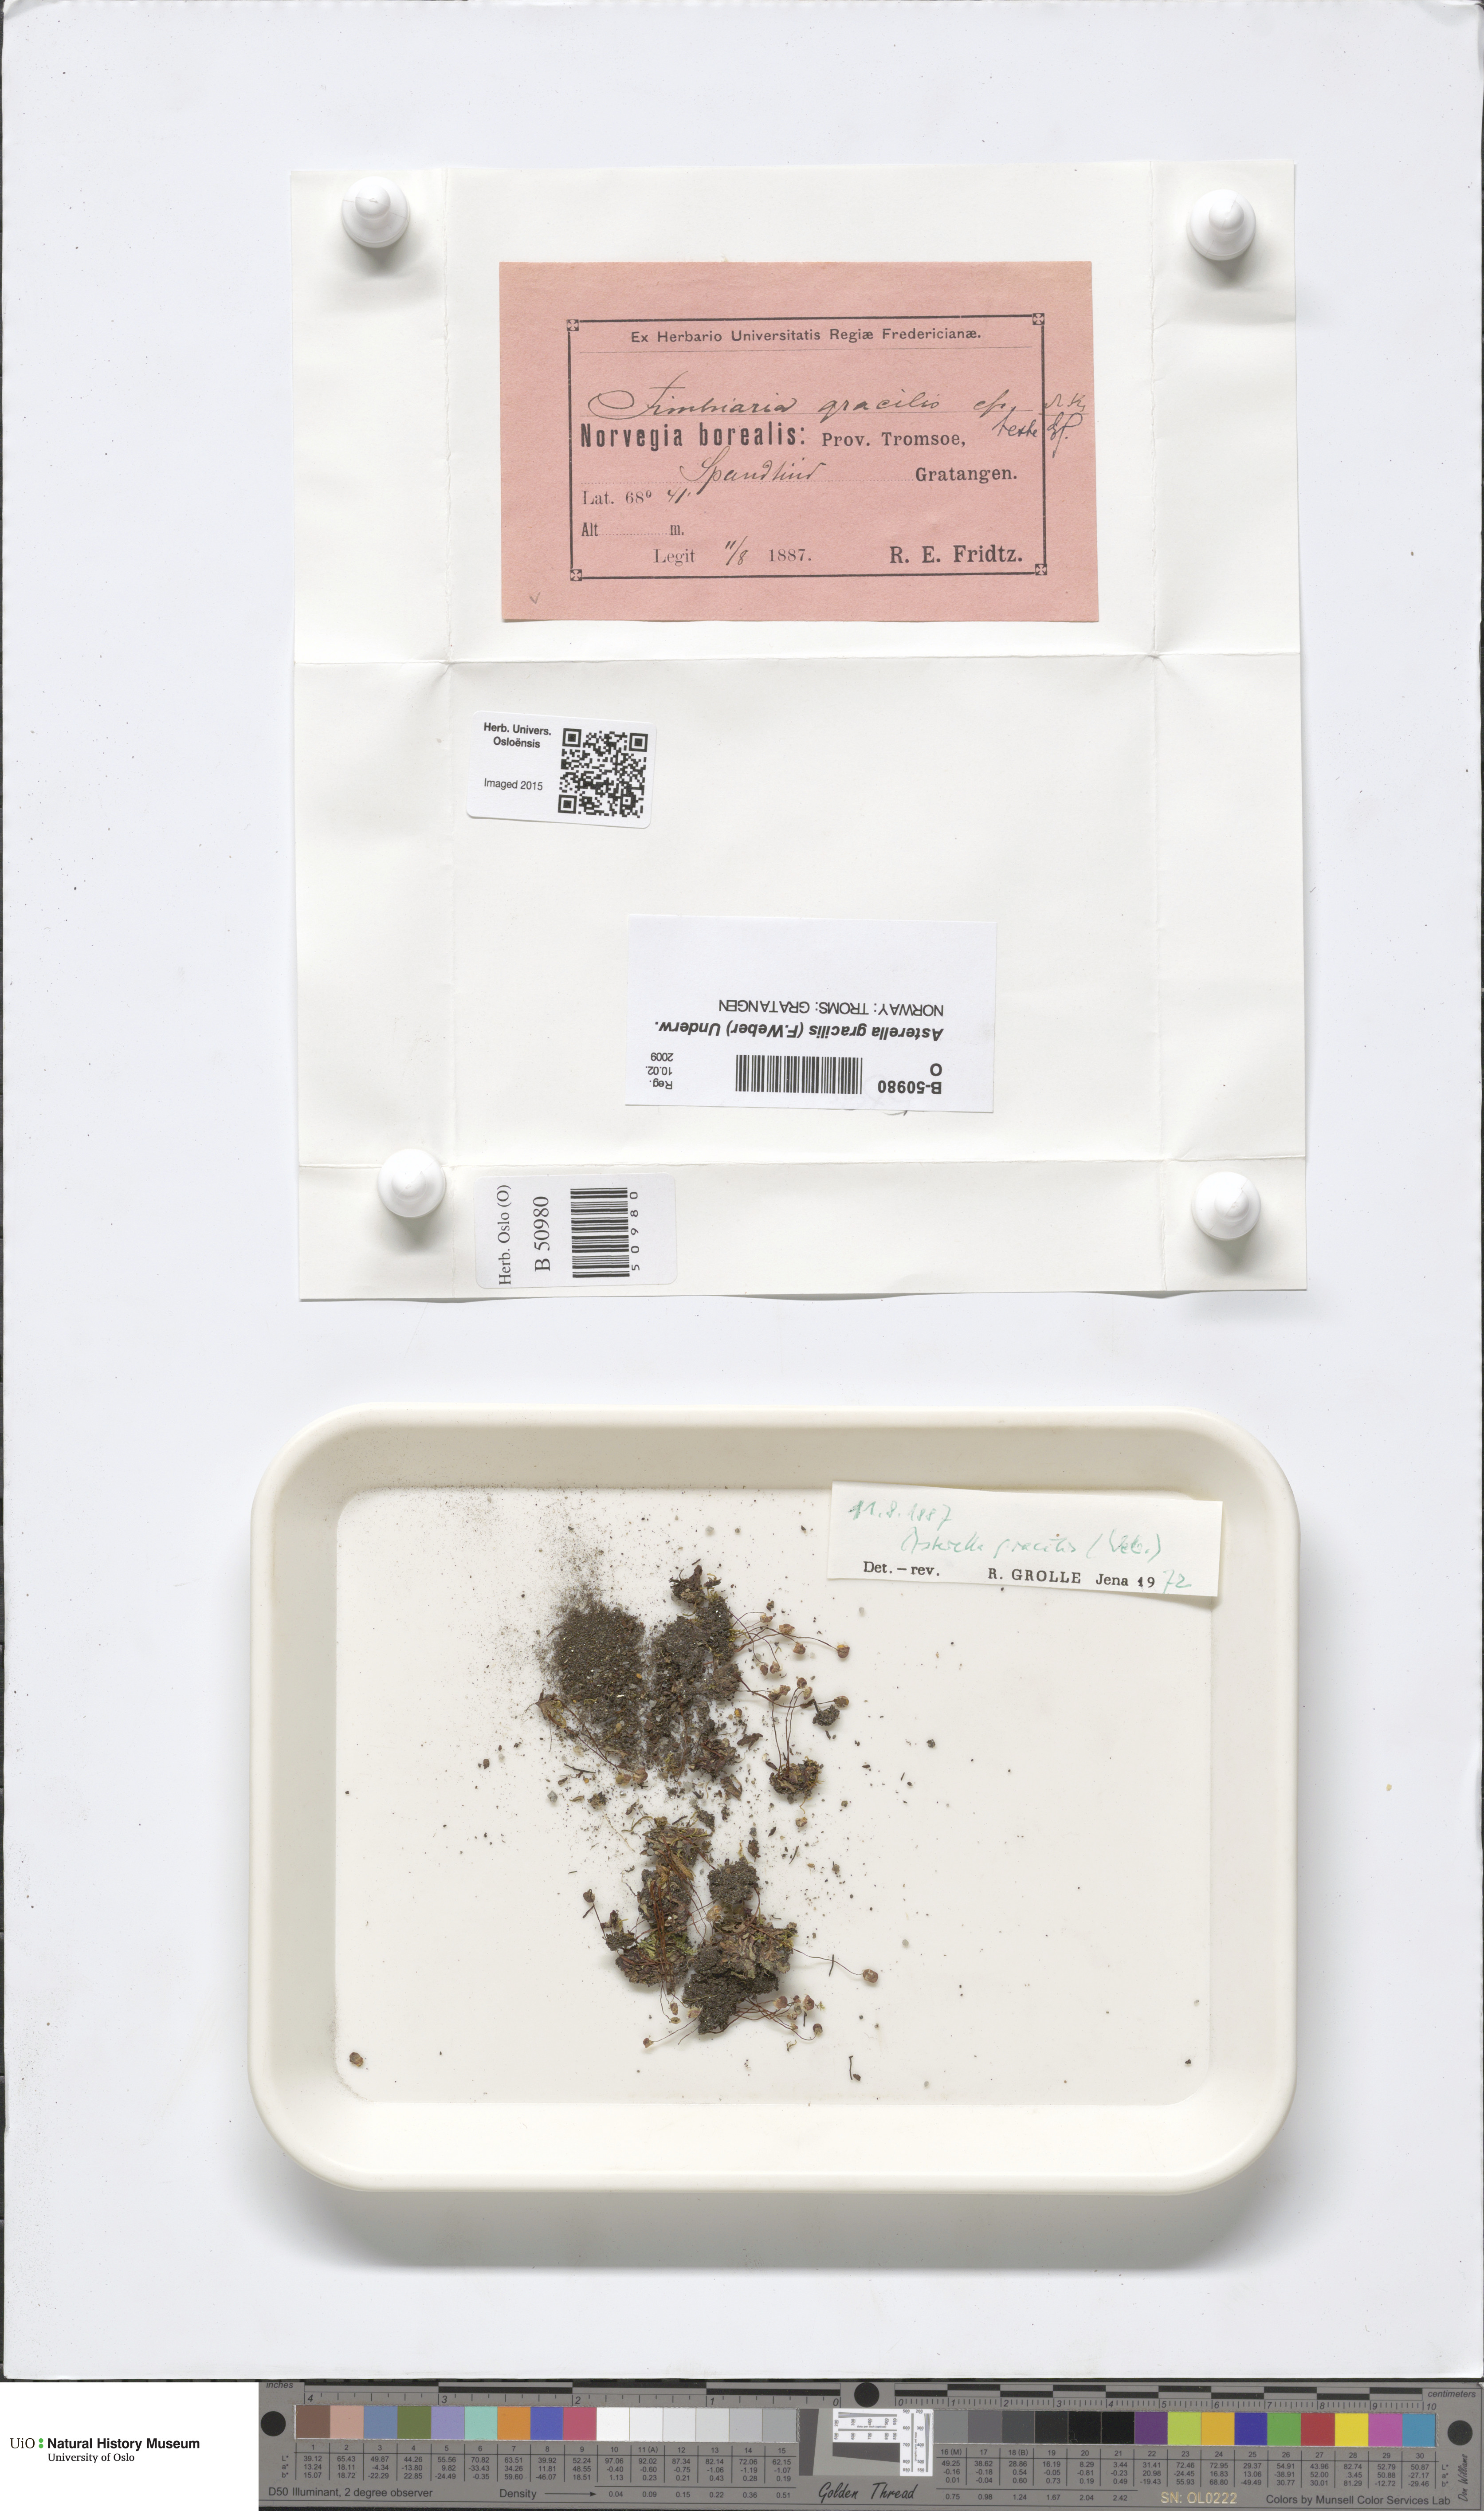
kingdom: Plantae
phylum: Marchantiophyta
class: Marchantiopsida
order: Marchantiales
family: Aytoniaceae
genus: Mannia
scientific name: Mannia gracilis
